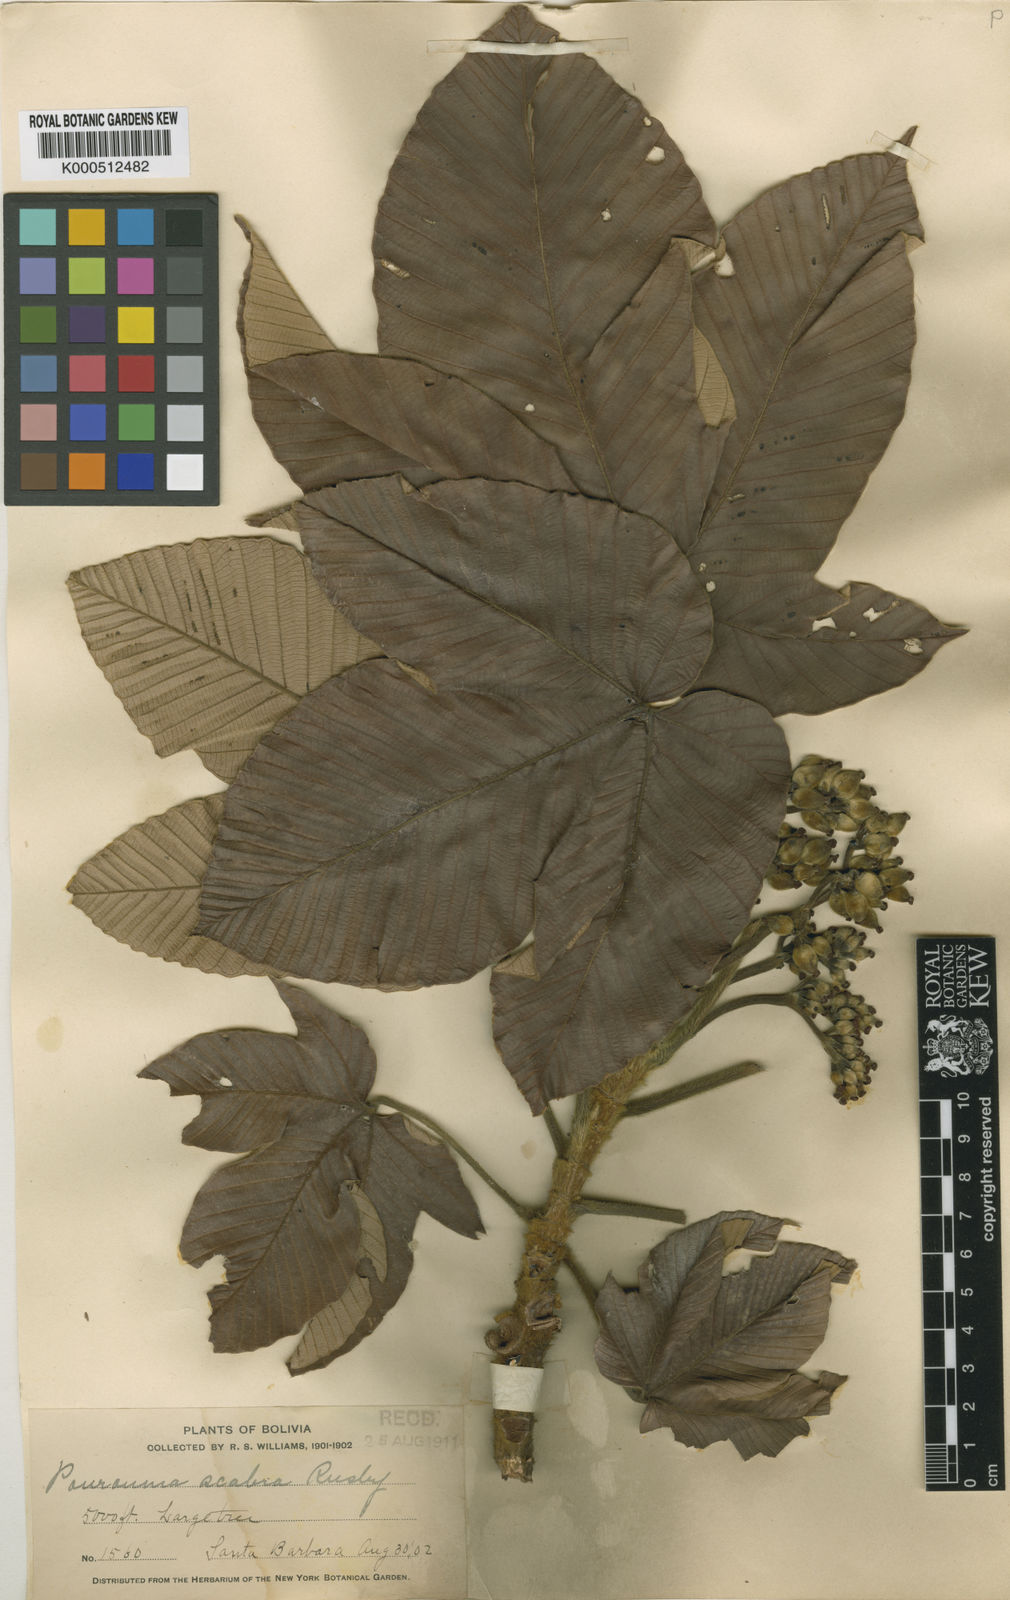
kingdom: Plantae
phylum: Tracheophyta
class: Magnoliopsida
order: Rosales
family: Urticaceae
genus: Pourouma
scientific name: Pourouma guianensis
